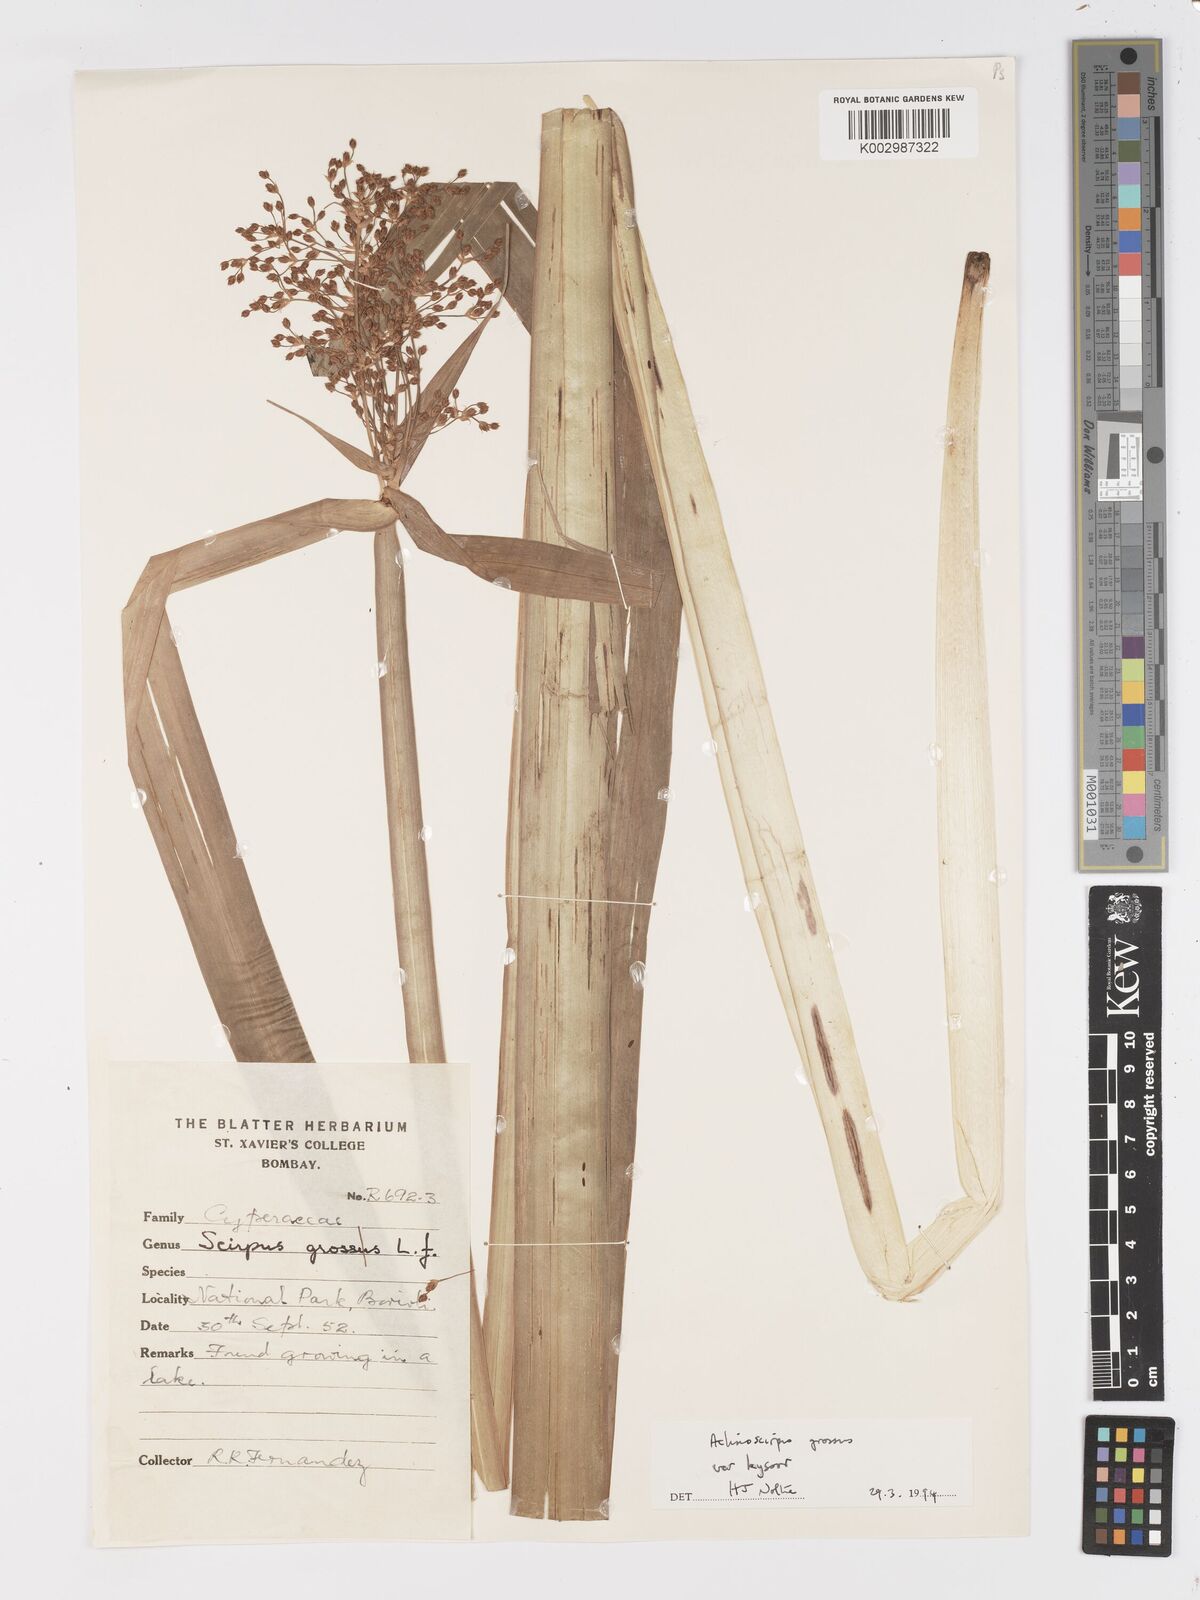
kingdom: Plantae
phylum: Tracheophyta
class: Liliopsida
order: Poales
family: Cyperaceae
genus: Actinoscirpus
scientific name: Actinoscirpus grossus
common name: Giant bur rush
